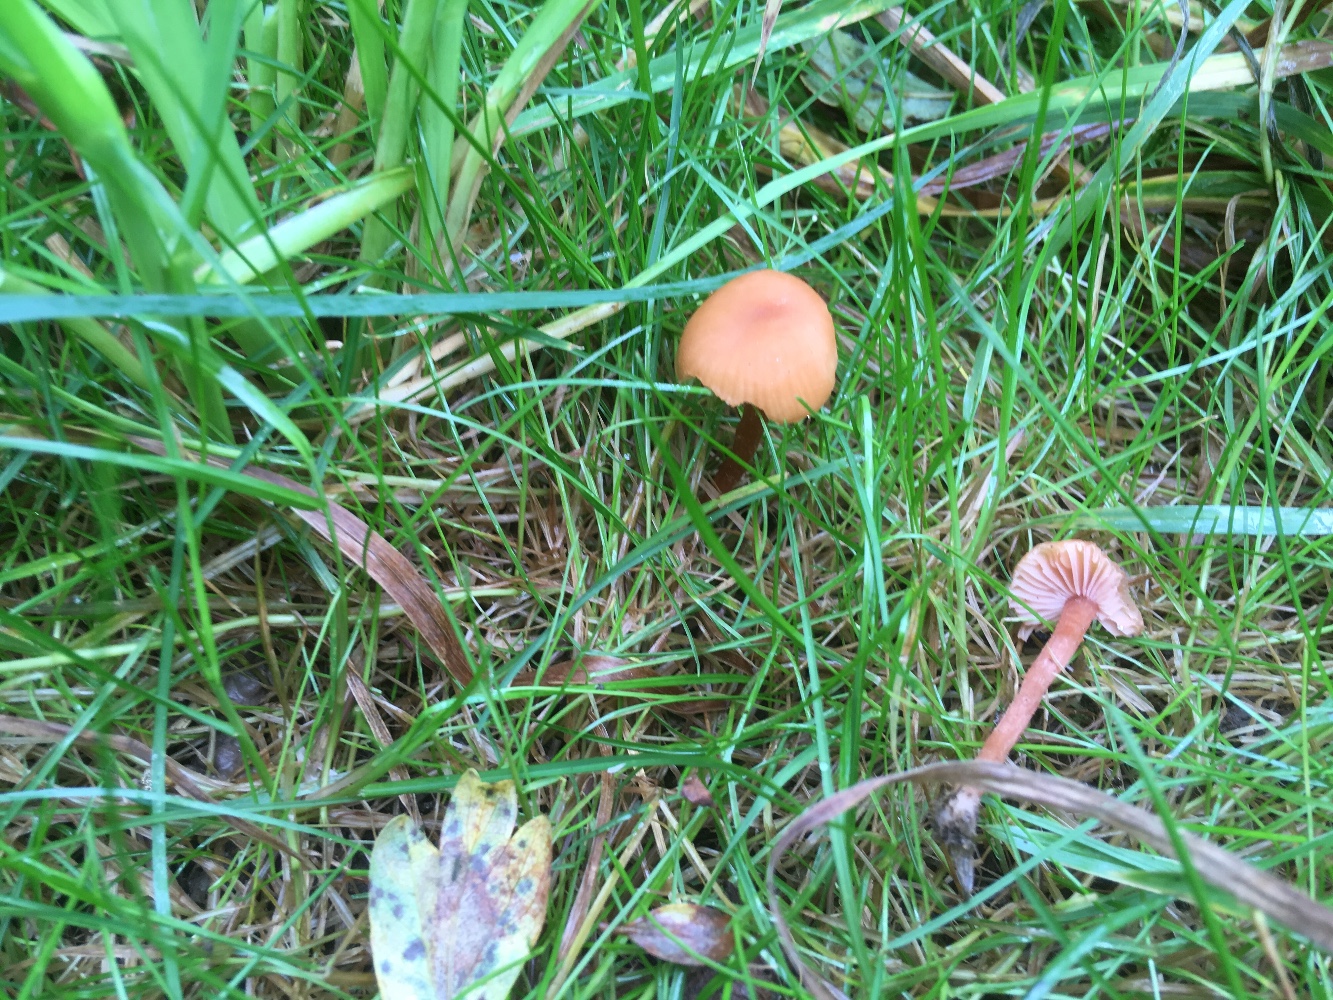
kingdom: Fungi
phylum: Basidiomycota
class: Agaricomycetes
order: Agaricales
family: Hydnangiaceae
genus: Laccaria
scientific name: Laccaria laccata
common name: rød ametysthat
